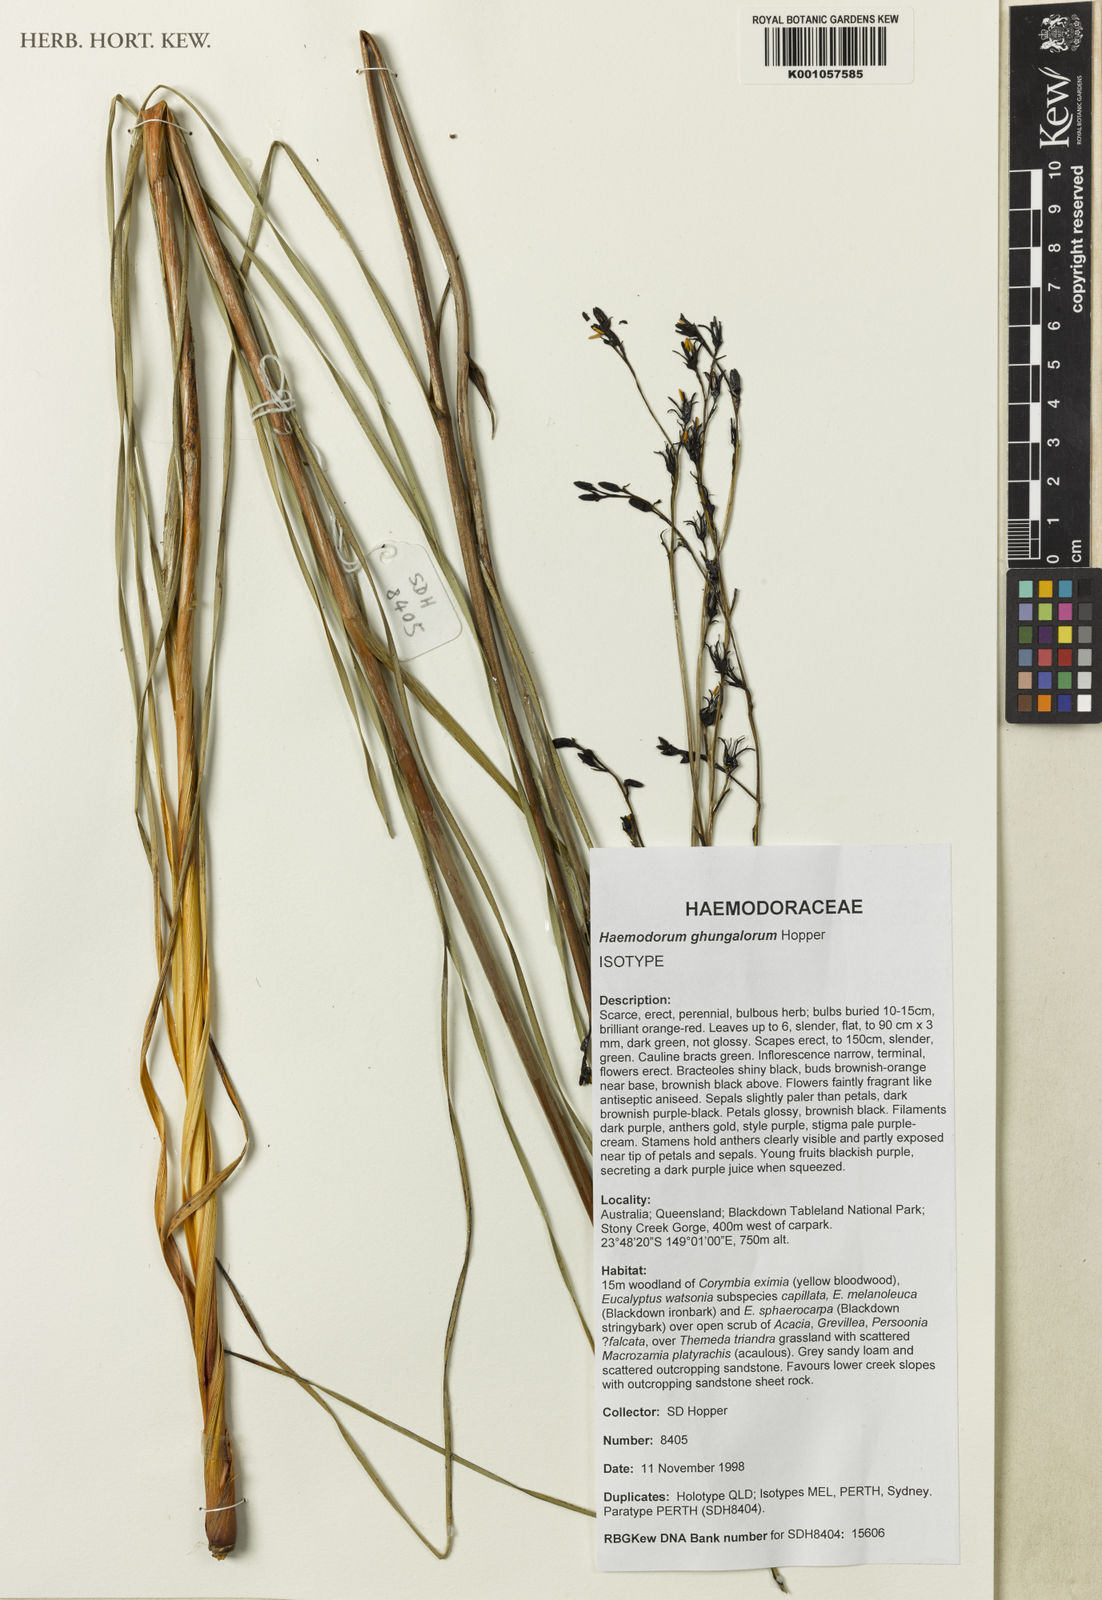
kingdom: Plantae
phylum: Tracheophyta
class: Liliopsida
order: Commelinales
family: Haemodoraceae
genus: Haemodorum
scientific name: Haemodorum
